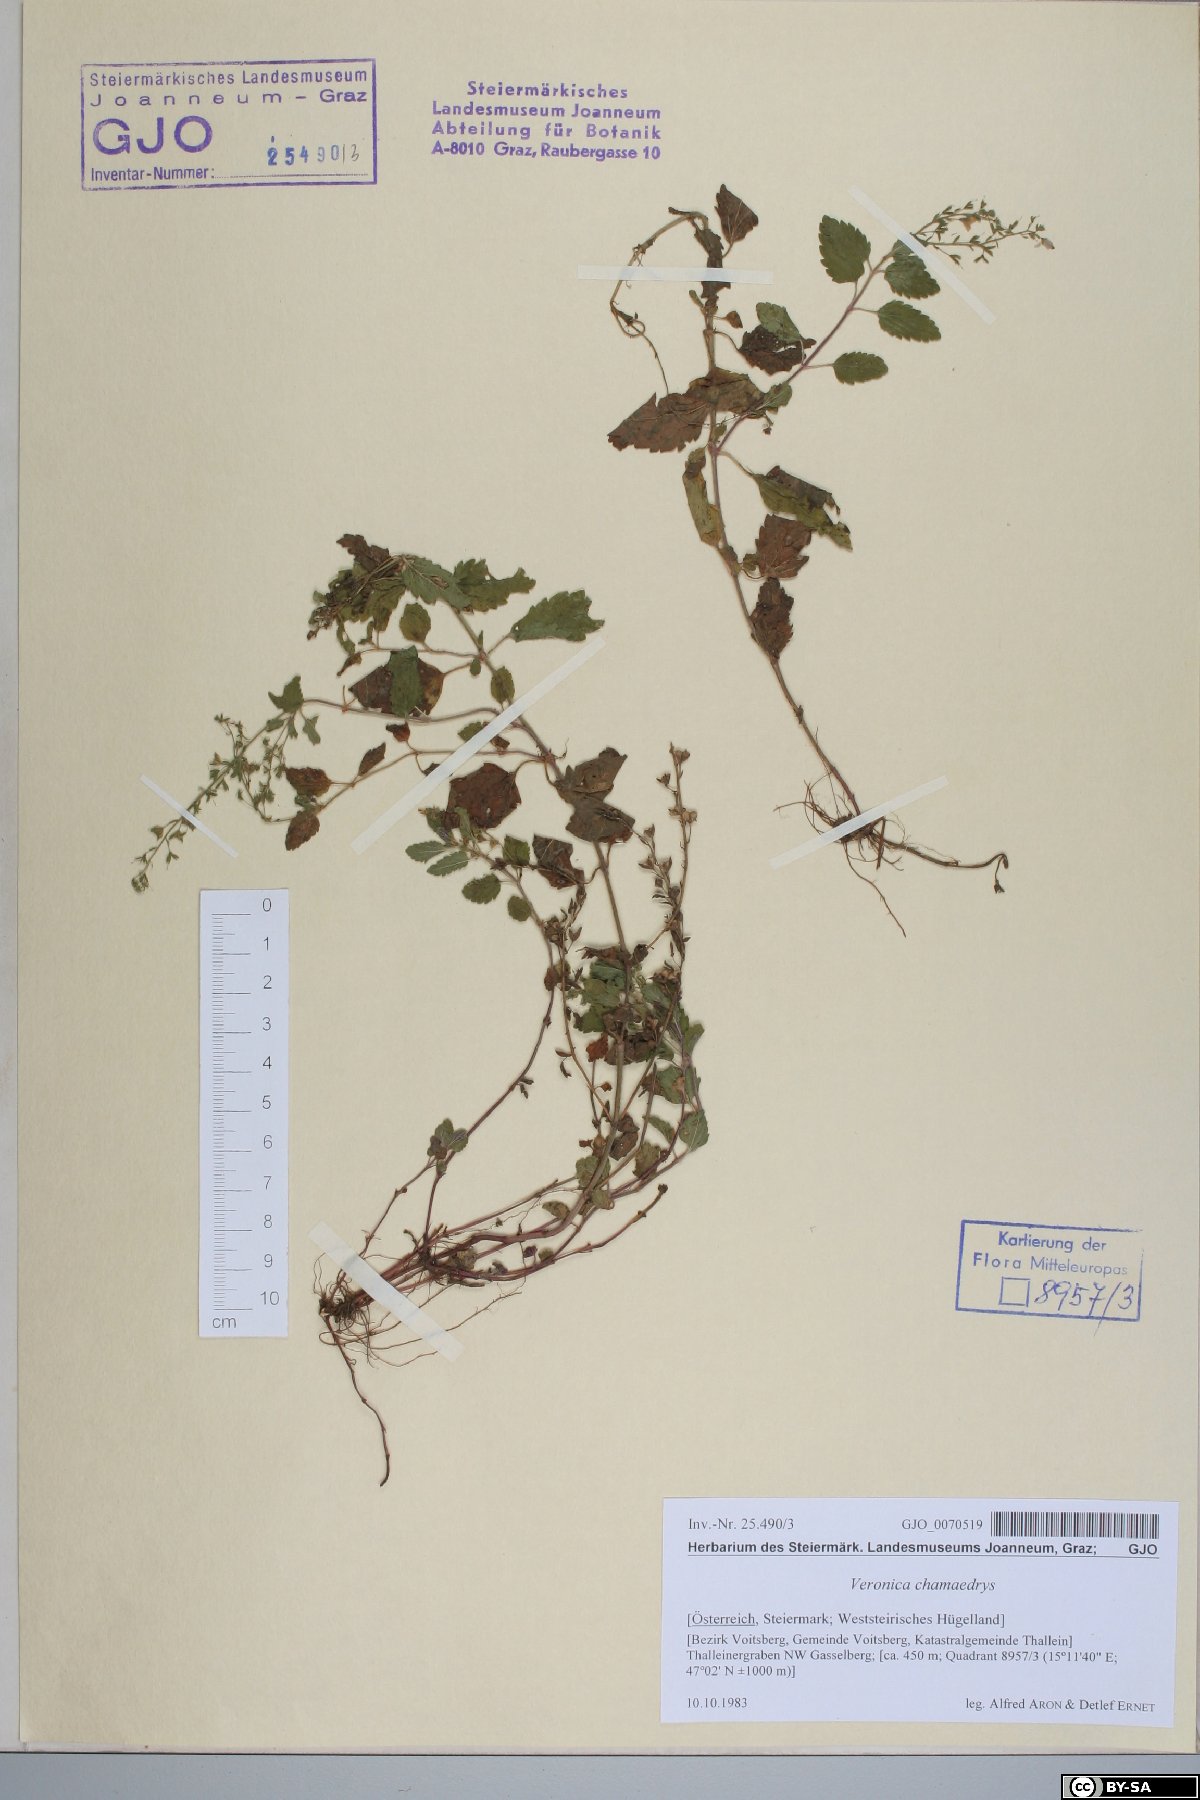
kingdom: Plantae
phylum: Tracheophyta
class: Magnoliopsida
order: Lamiales
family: Plantaginaceae
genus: Veronica
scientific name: Veronica chamaedrys
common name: Germander speedwell
